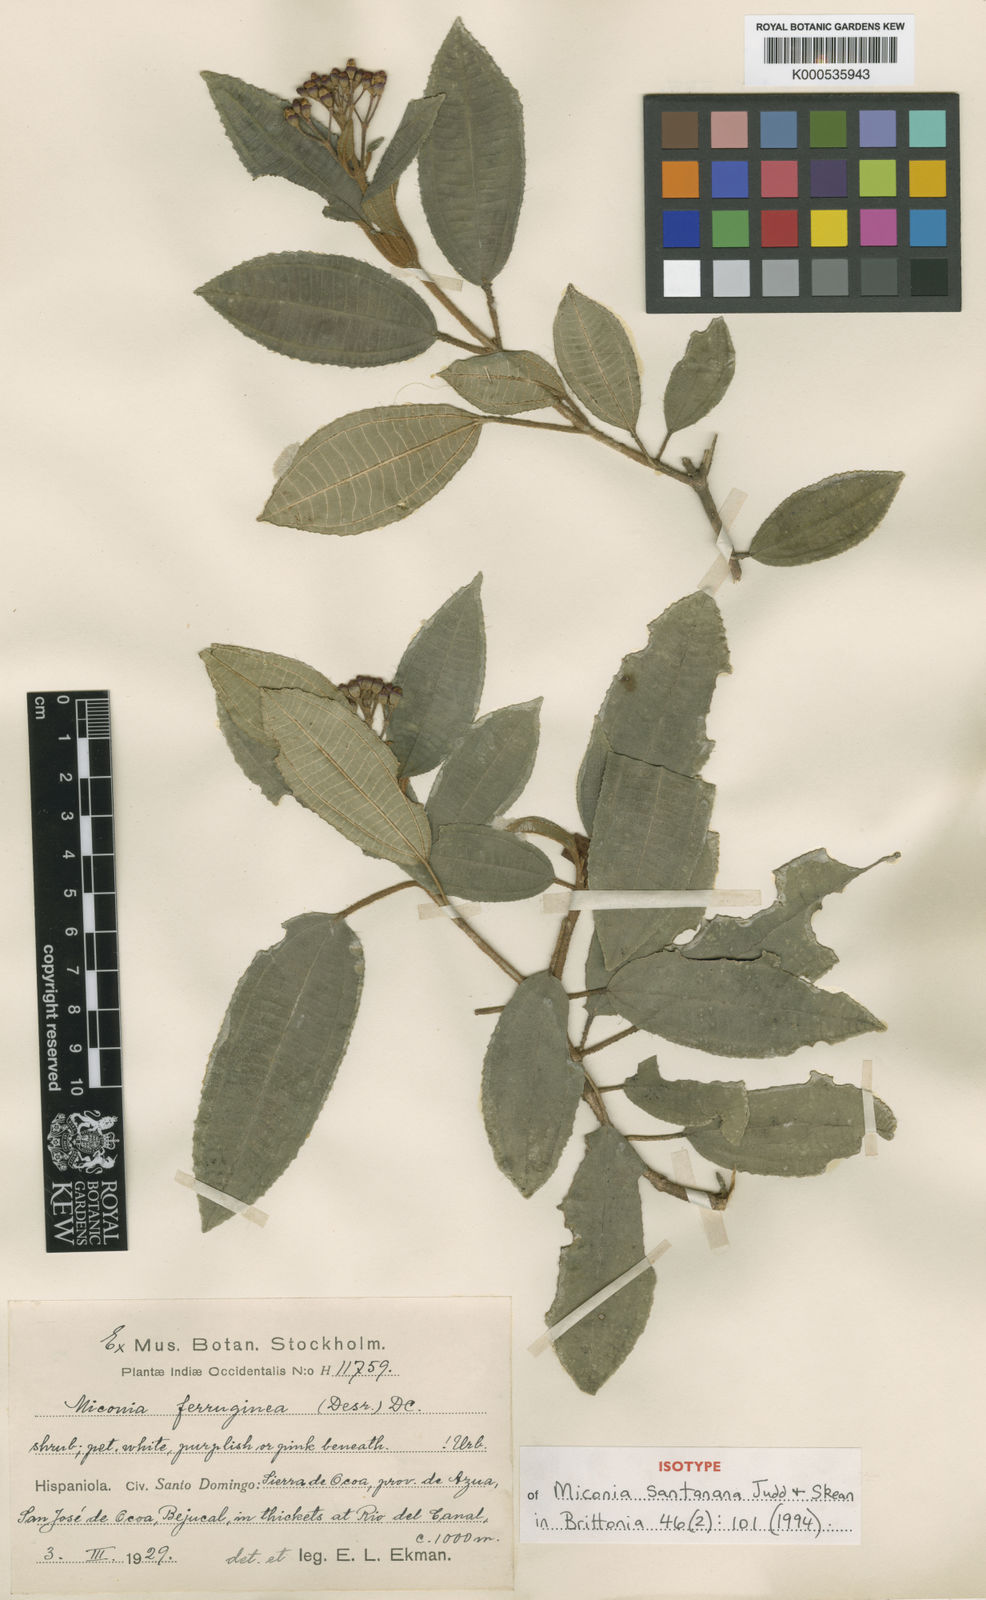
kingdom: Plantae
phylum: Tracheophyta
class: Magnoliopsida
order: Myrtales
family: Melastomataceae
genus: Miconia
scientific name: Miconia santanana
